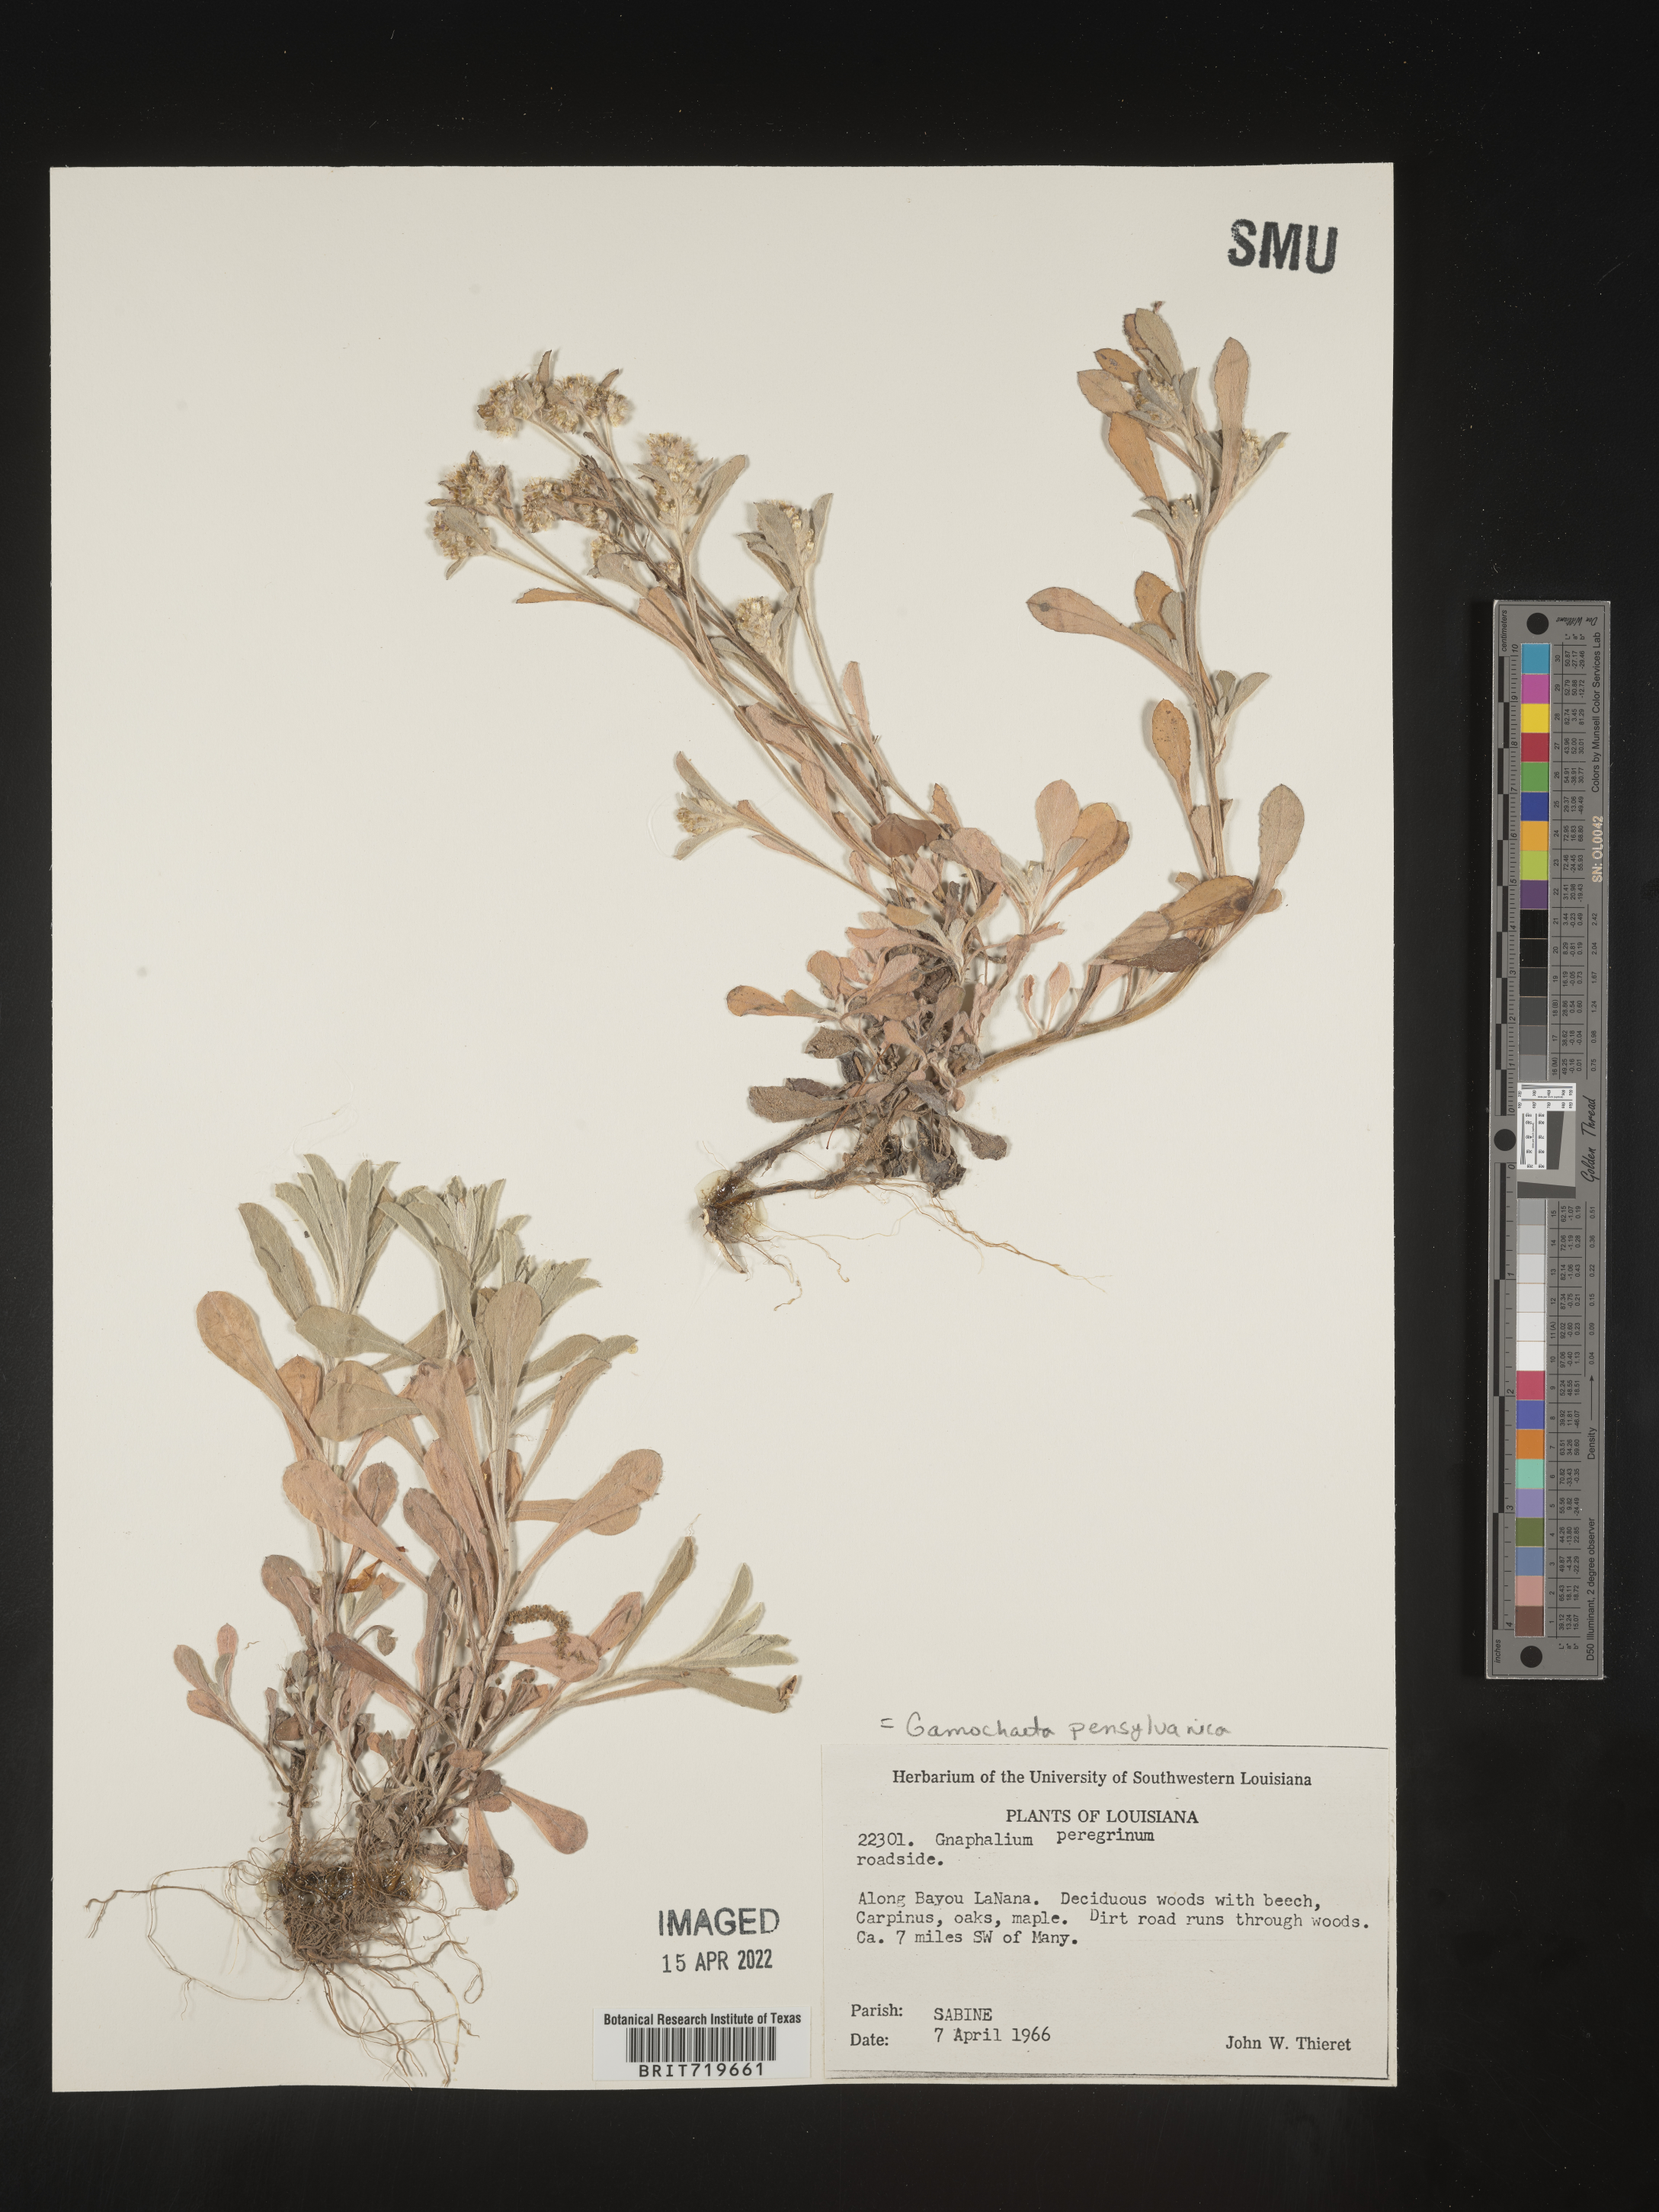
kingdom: Plantae
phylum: Tracheophyta
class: Magnoliopsida
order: Asterales
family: Asteraceae
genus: Gamochaeta
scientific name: Gamochaeta pensylvanica
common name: Pennsylvania everlasting
